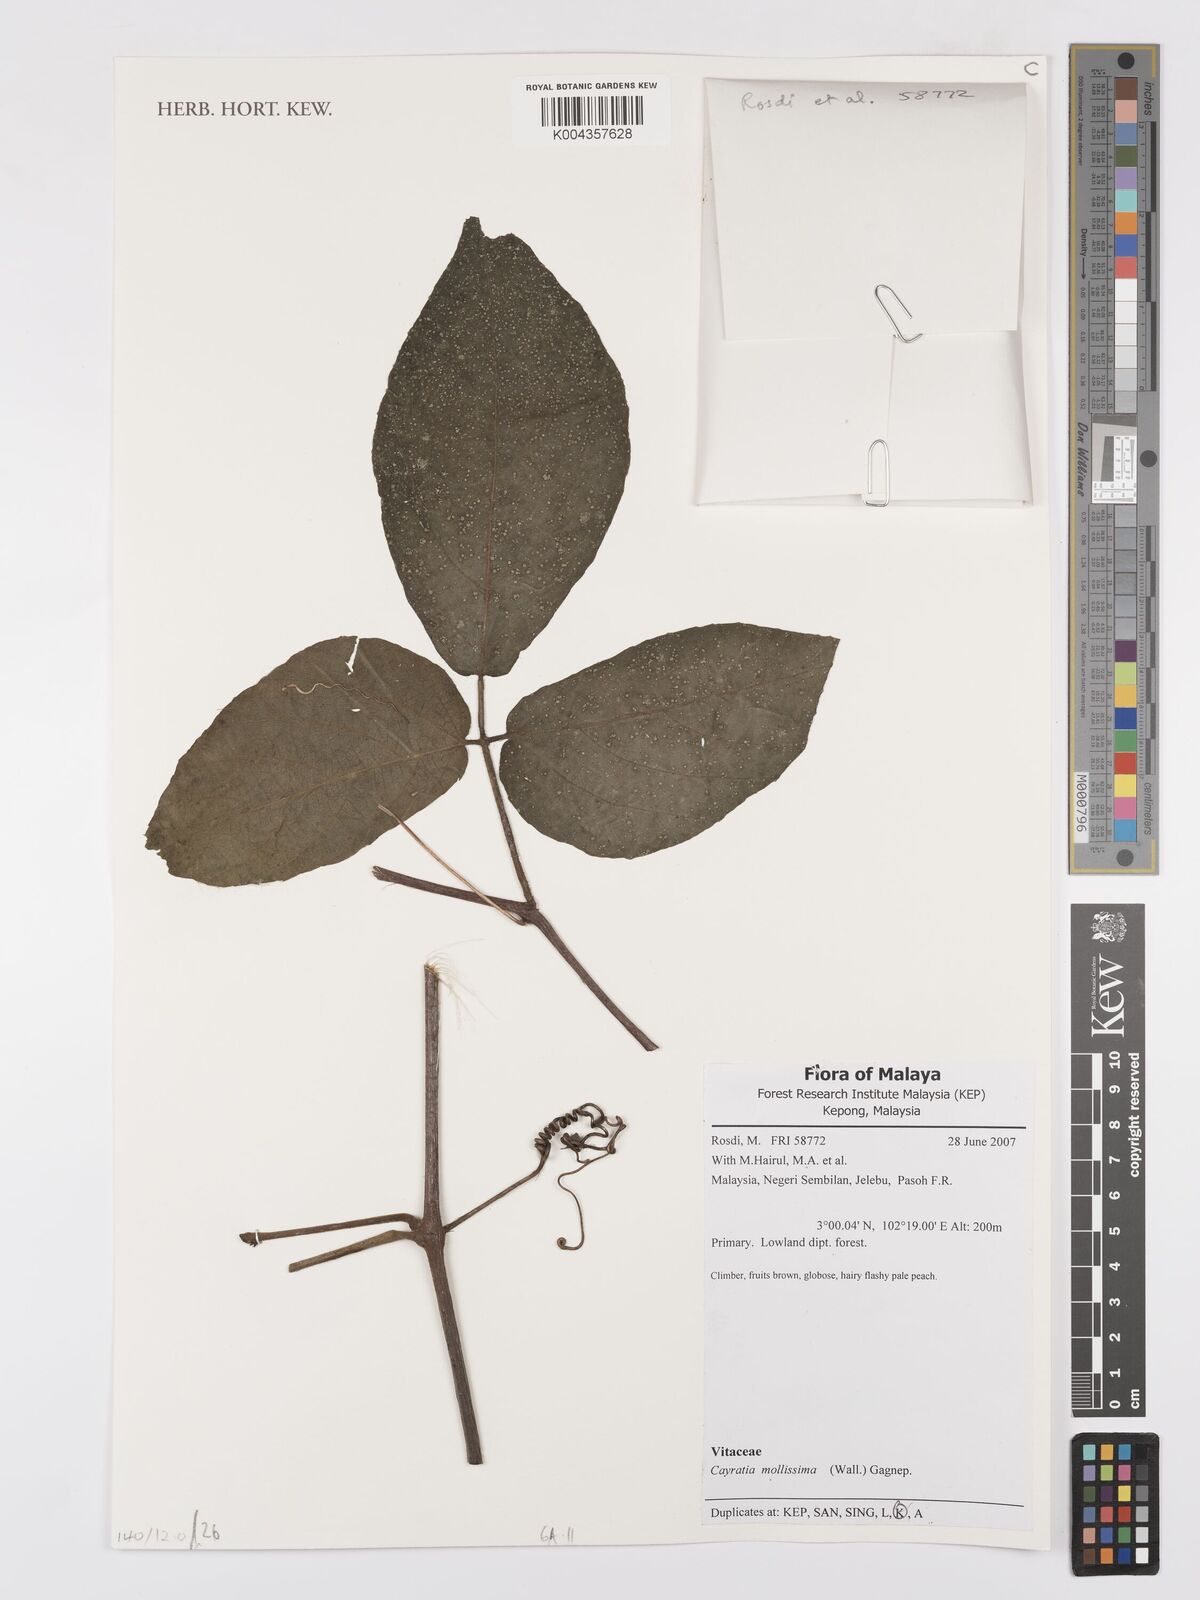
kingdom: Plantae
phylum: Tracheophyta
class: Magnoliopsida
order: Vitales
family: Vitaceae
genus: Cayratia
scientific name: Cayratia mollissima
